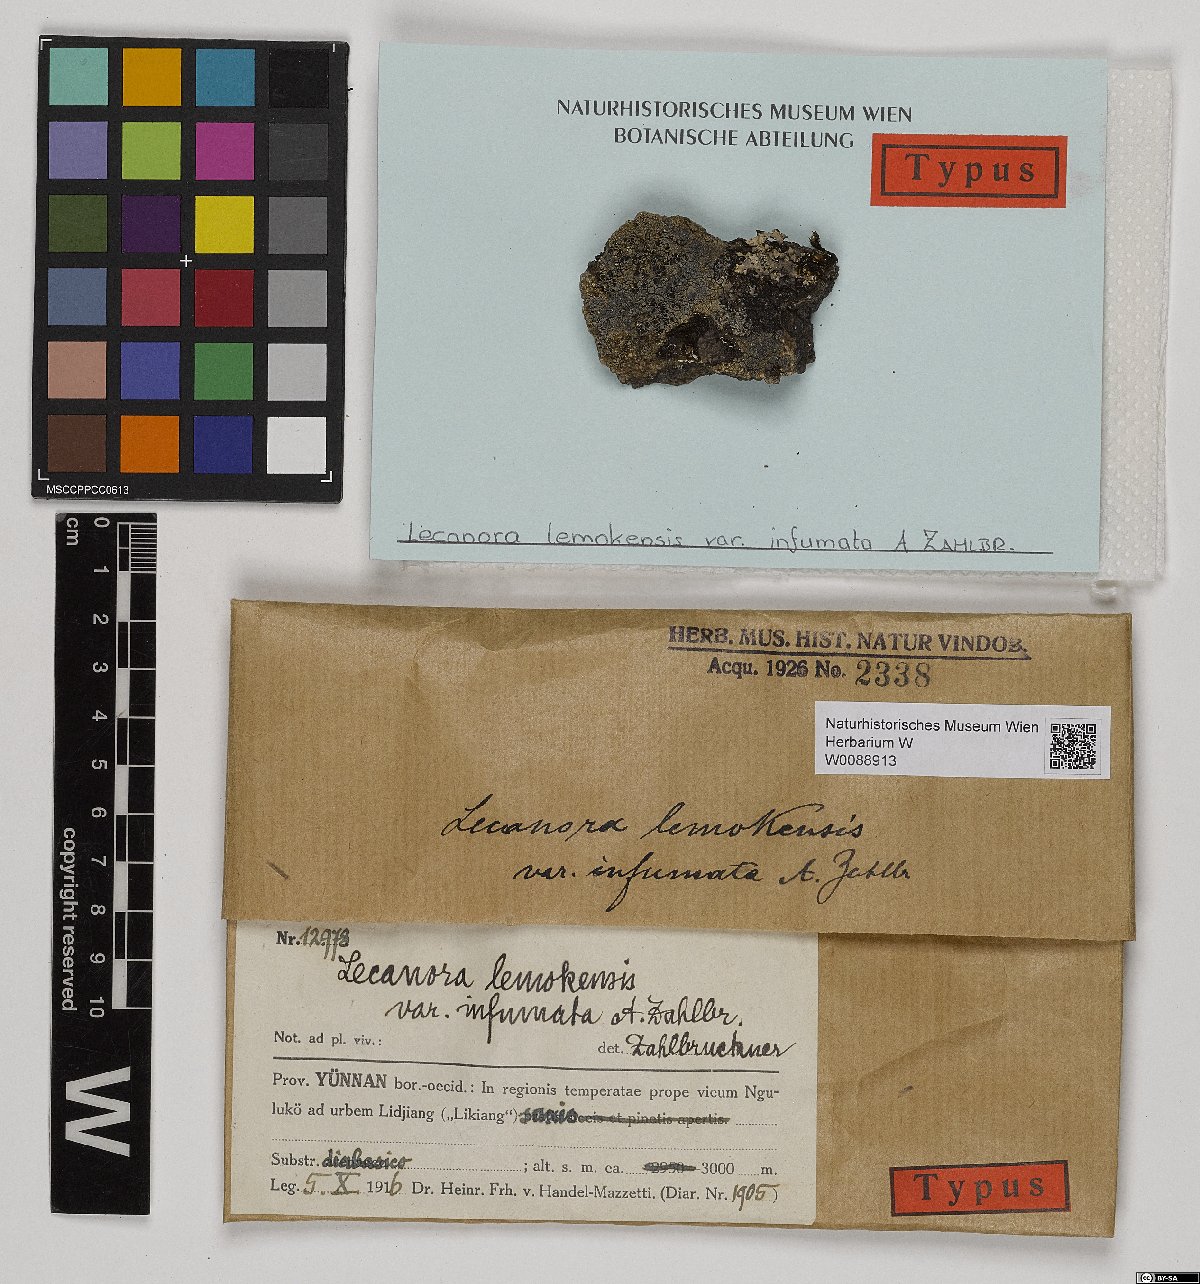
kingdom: Fungi
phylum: Ascomycota
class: Lecanoromycetes
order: Lecanorales
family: Lecanoraceae
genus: Lecanora
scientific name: Lecanora
